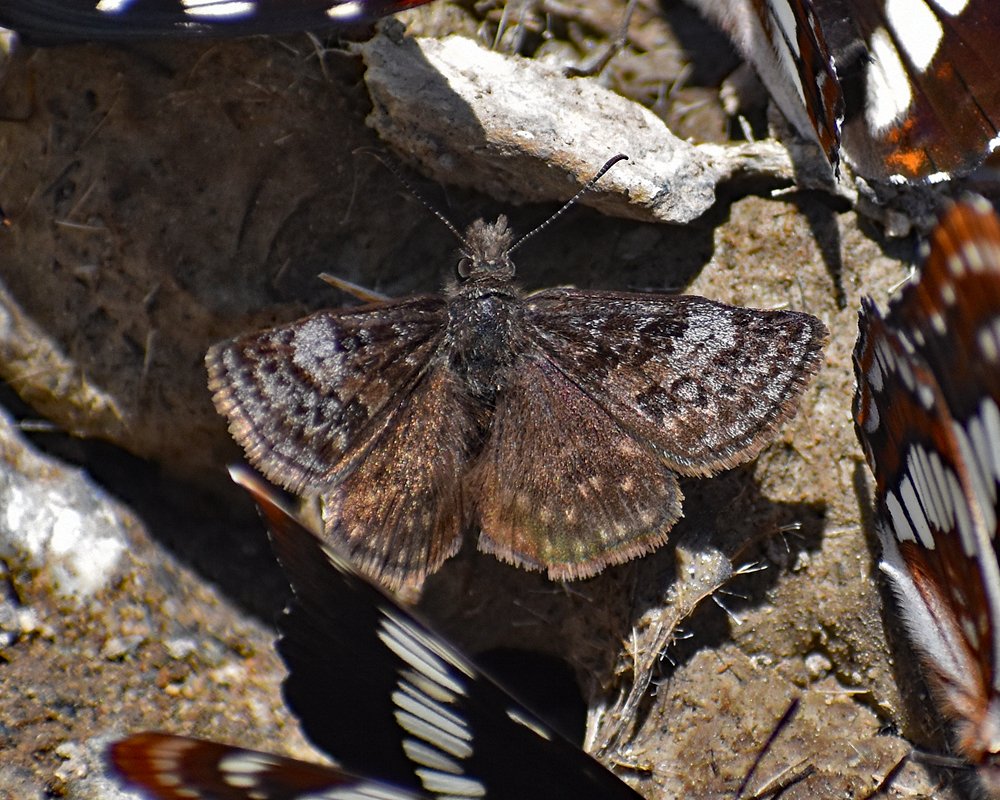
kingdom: Animalia
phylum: Arthropoda
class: Insecta
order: Lepidoptera
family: Hesperiidae
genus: Erynnis
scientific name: Erynnis icelus
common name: Dreamy Duskywing
